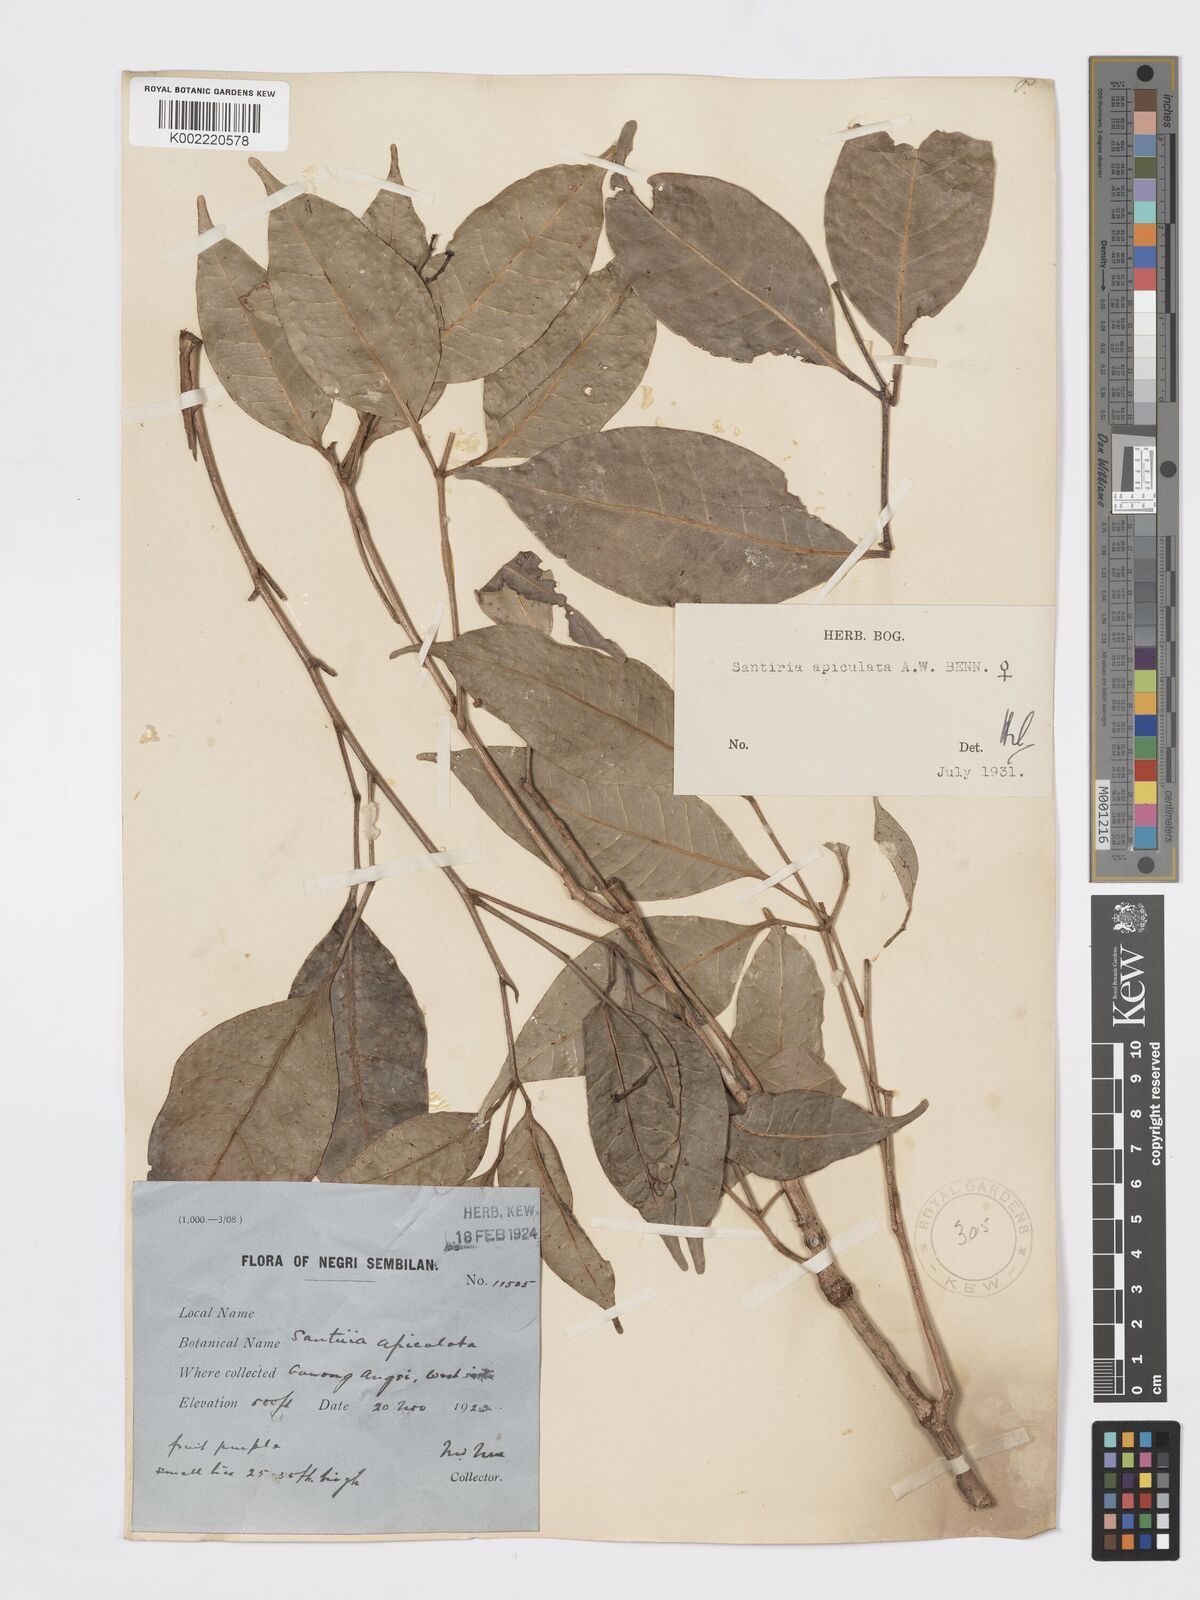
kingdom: Plantae
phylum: Tracheophyta
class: Magnoliopsida
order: Sapindales
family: Burseraceae
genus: Santiria
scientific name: Santiria apiculata
